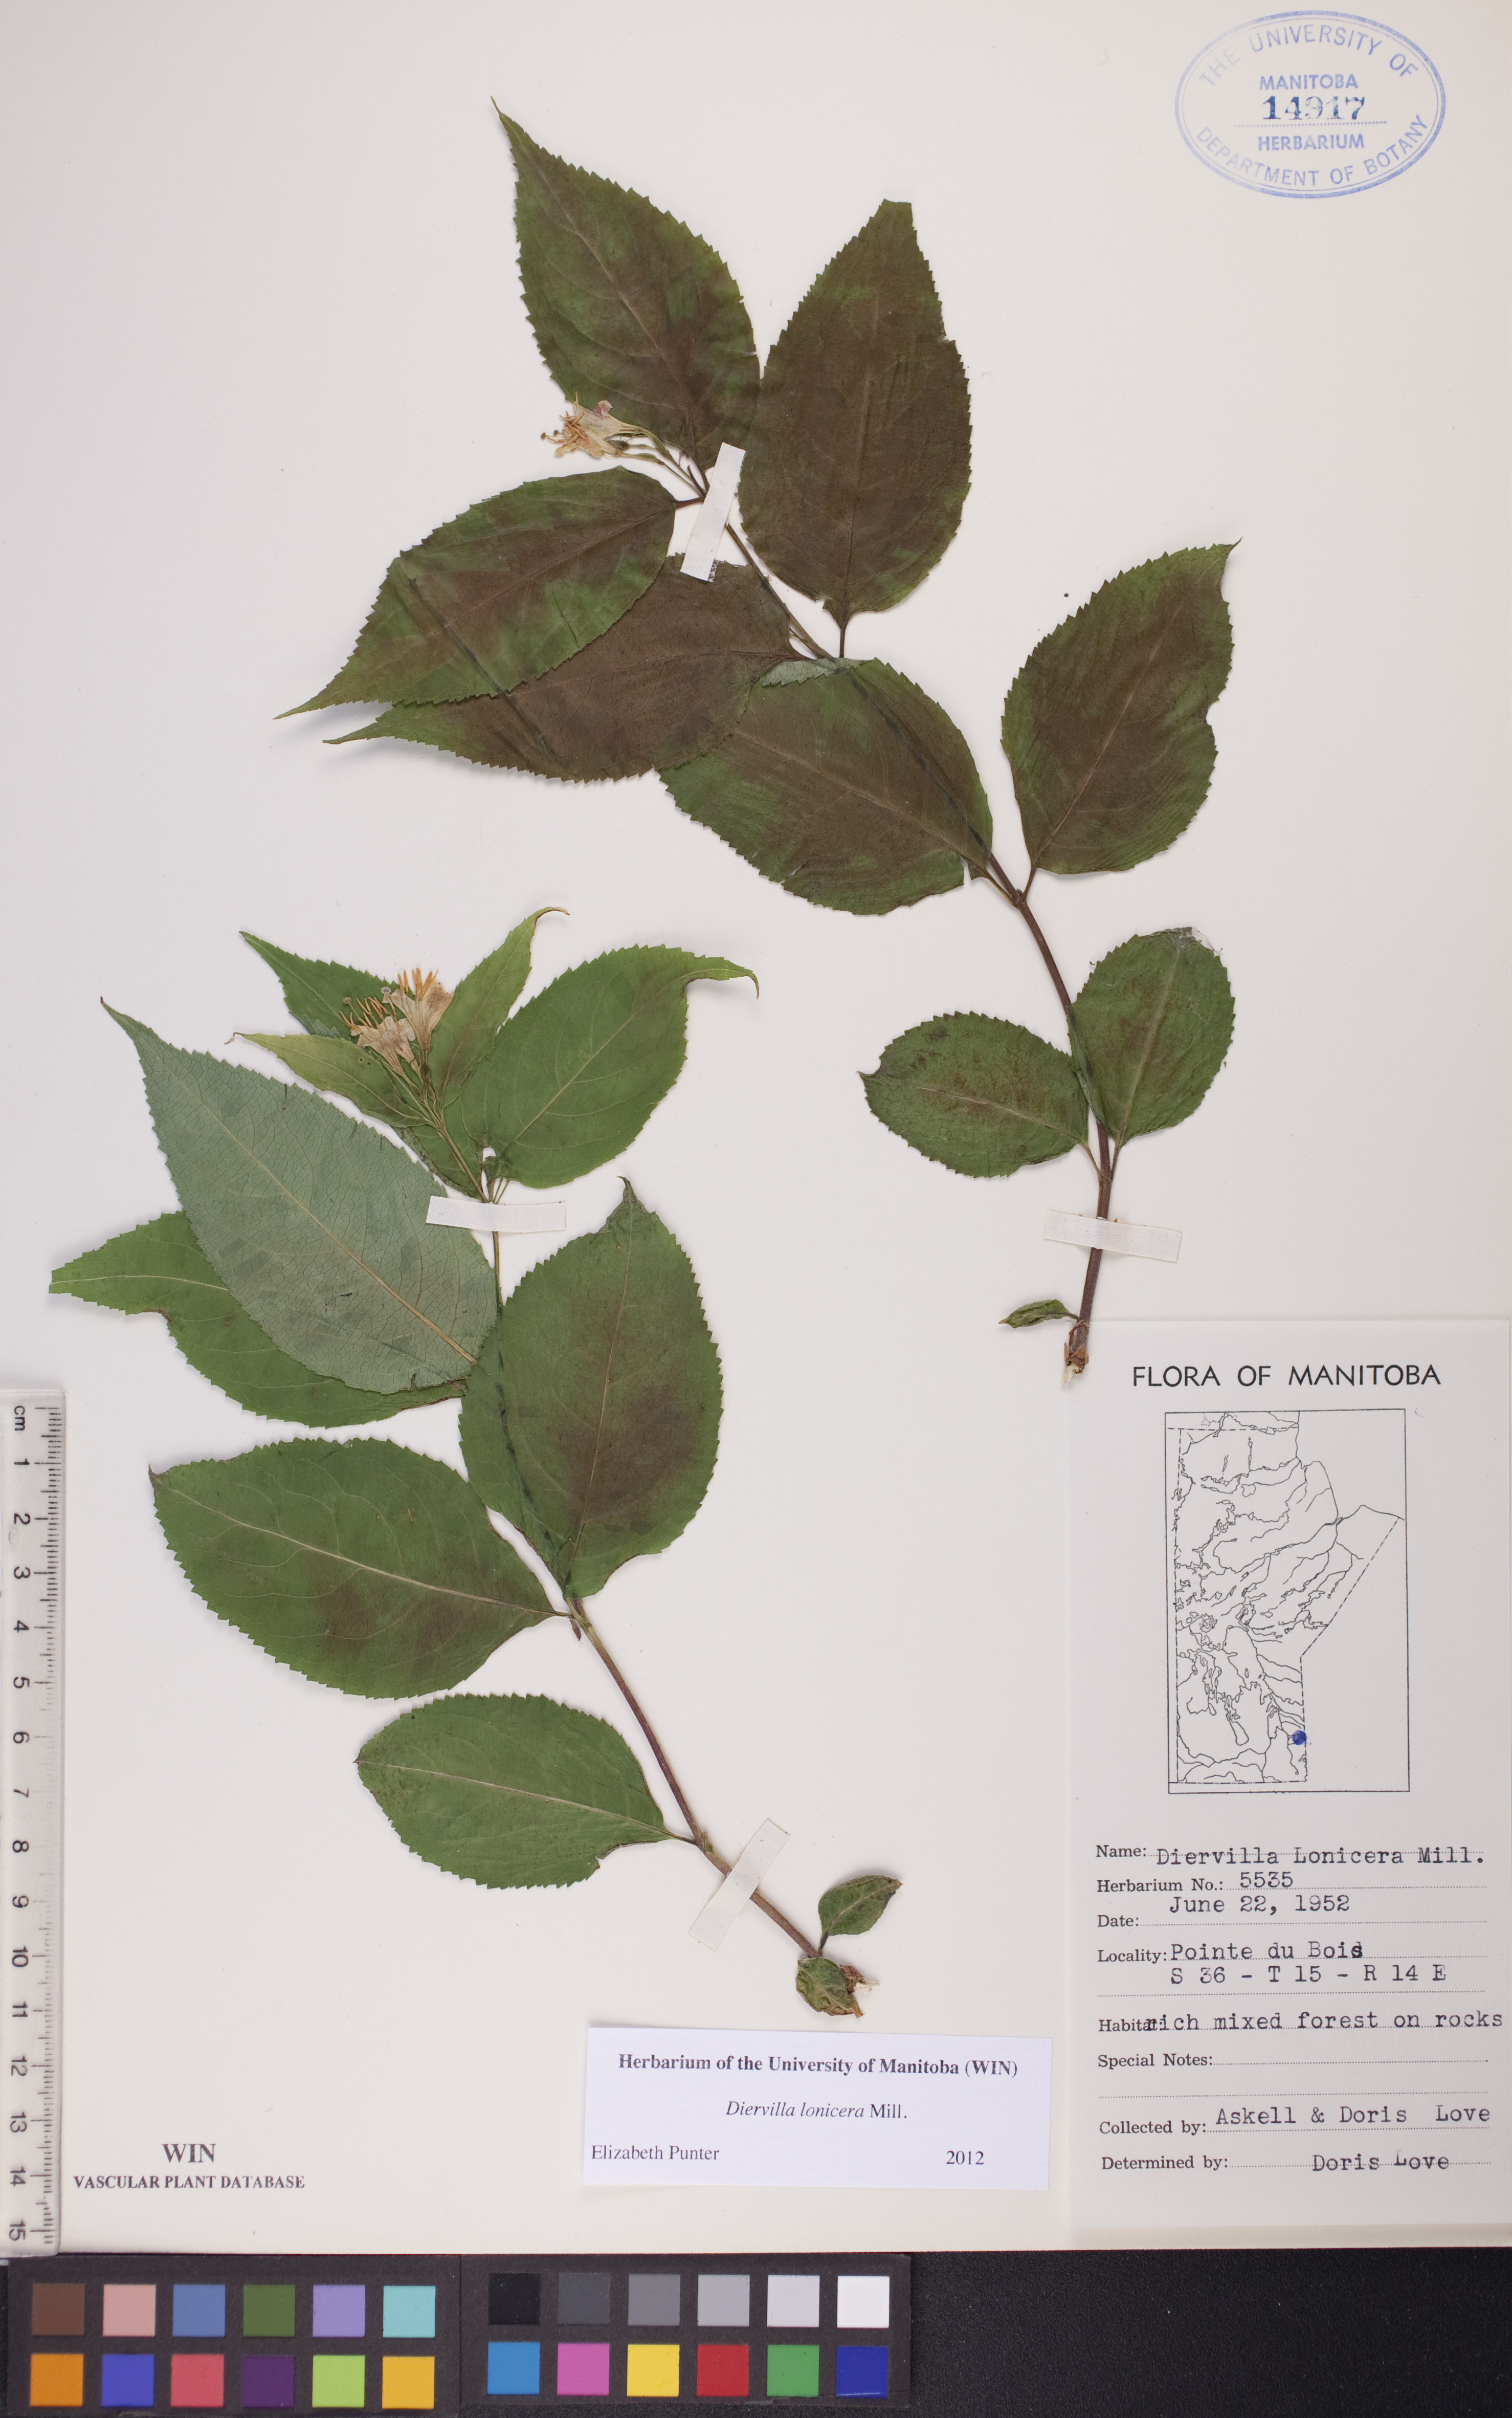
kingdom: Plantae
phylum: Tracheophyta
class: Magnoliopsida
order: Dipsacales
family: Caprifoliaceae
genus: Diervilla
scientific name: Diervilla lonicera
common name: Bush-honeysuckle
